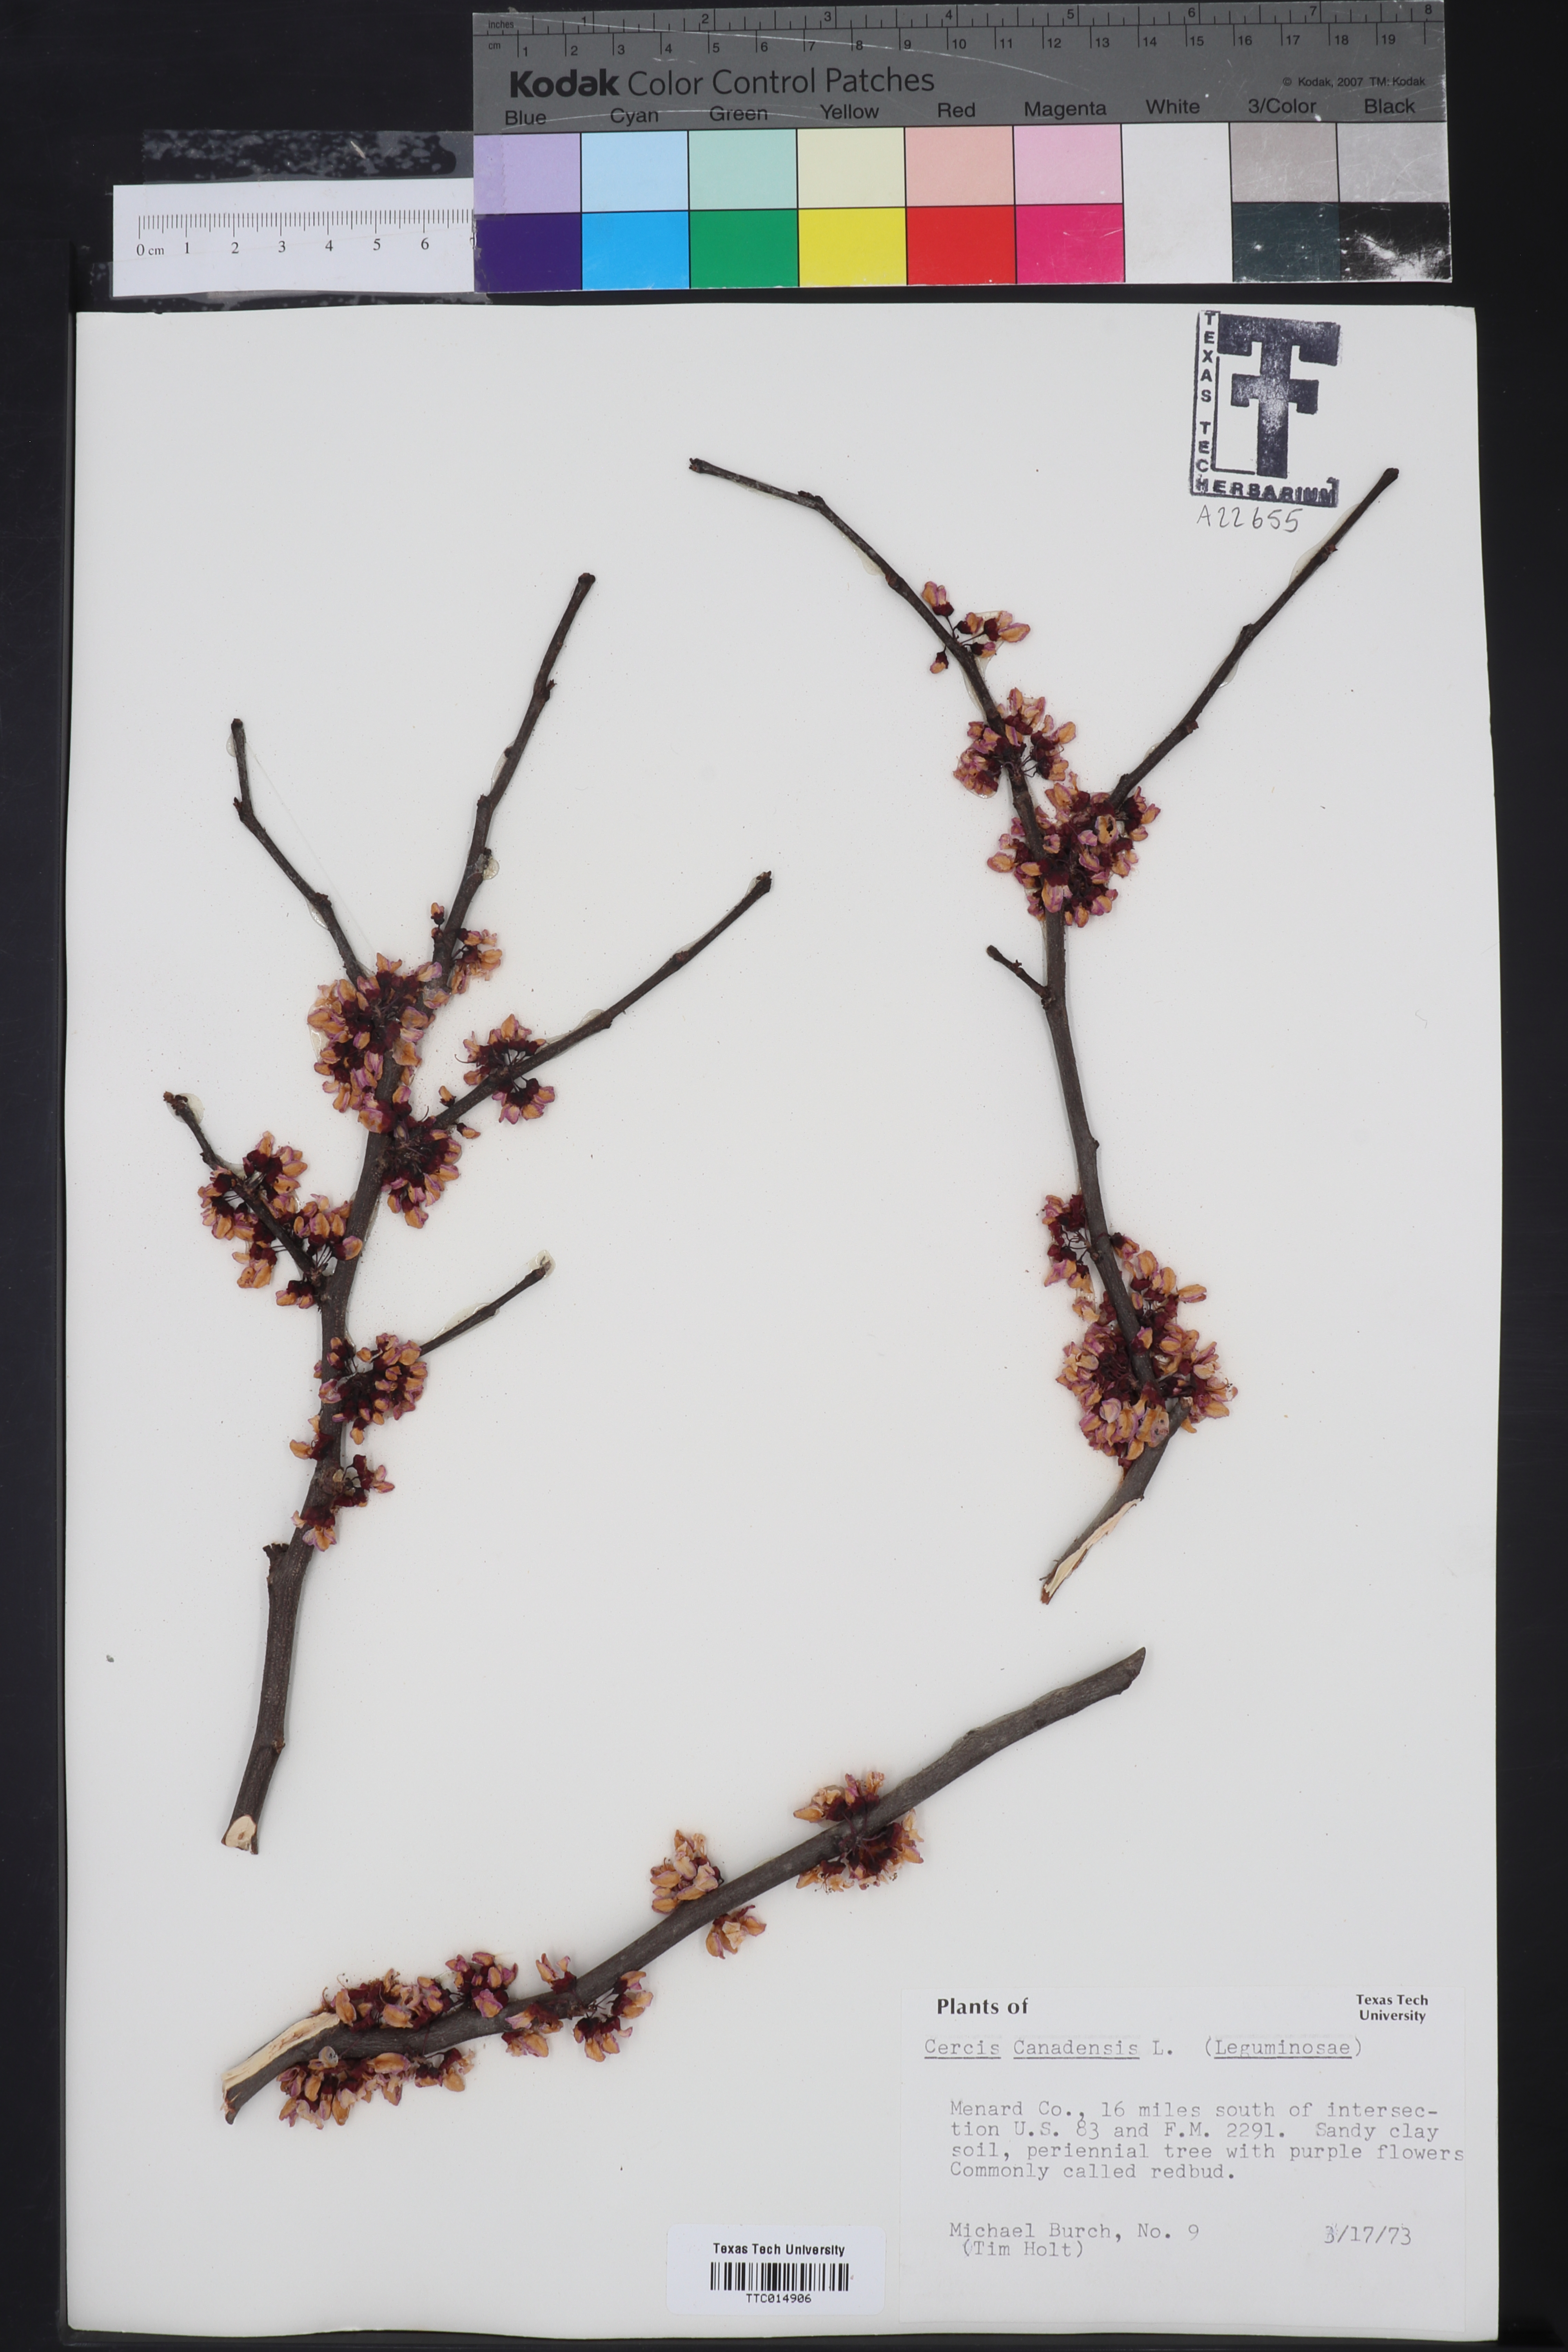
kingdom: Plantae
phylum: Tracheophyta
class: Magnoliopsida
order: Fabales
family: Fabaceae
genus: Cercis
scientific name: Cercis canadensis
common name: Eastern redbud
